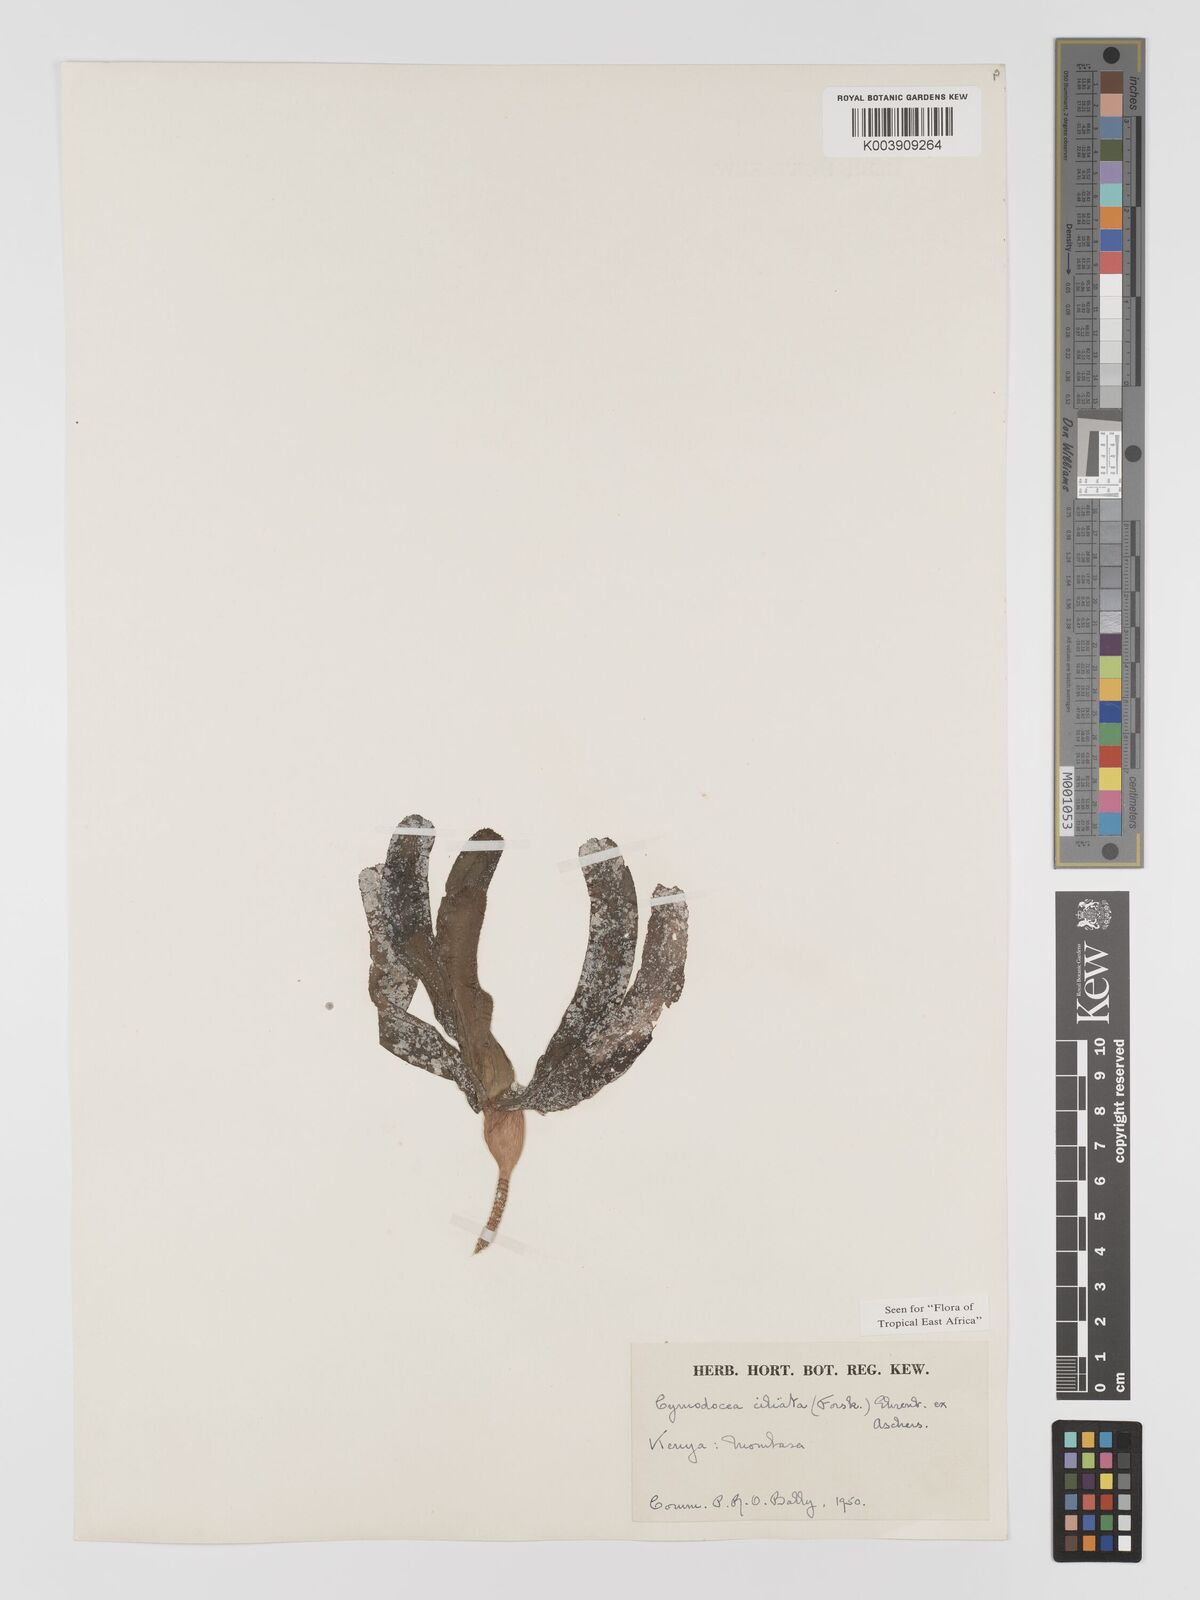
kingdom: Plantae
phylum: Tracheophyta
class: Liliopsida
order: Alismatales
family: Cymodoceaceae
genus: Thalassodendron
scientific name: Thalassodendron ciliatum
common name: Species code: tc
